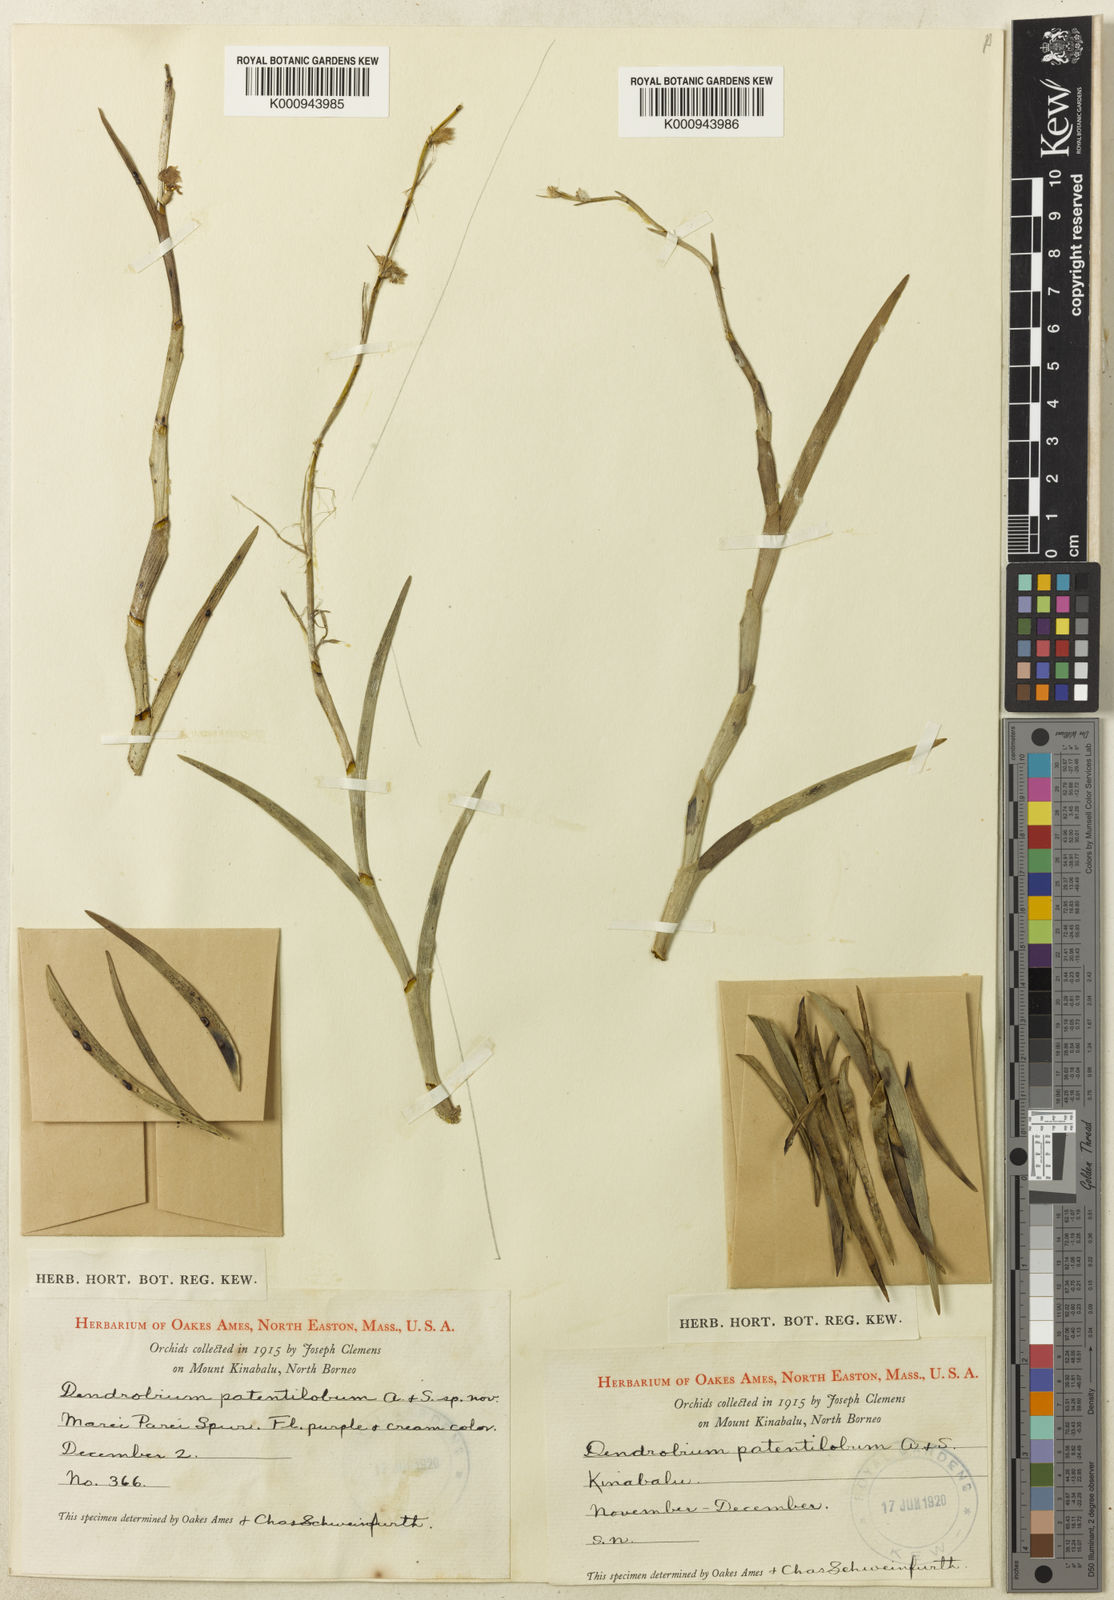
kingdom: Plantae
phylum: Tracheophyta
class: Liliopsida
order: Asparagales
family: Orchidaceae
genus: Dendrobium
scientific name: Dendrobium patentilobum
